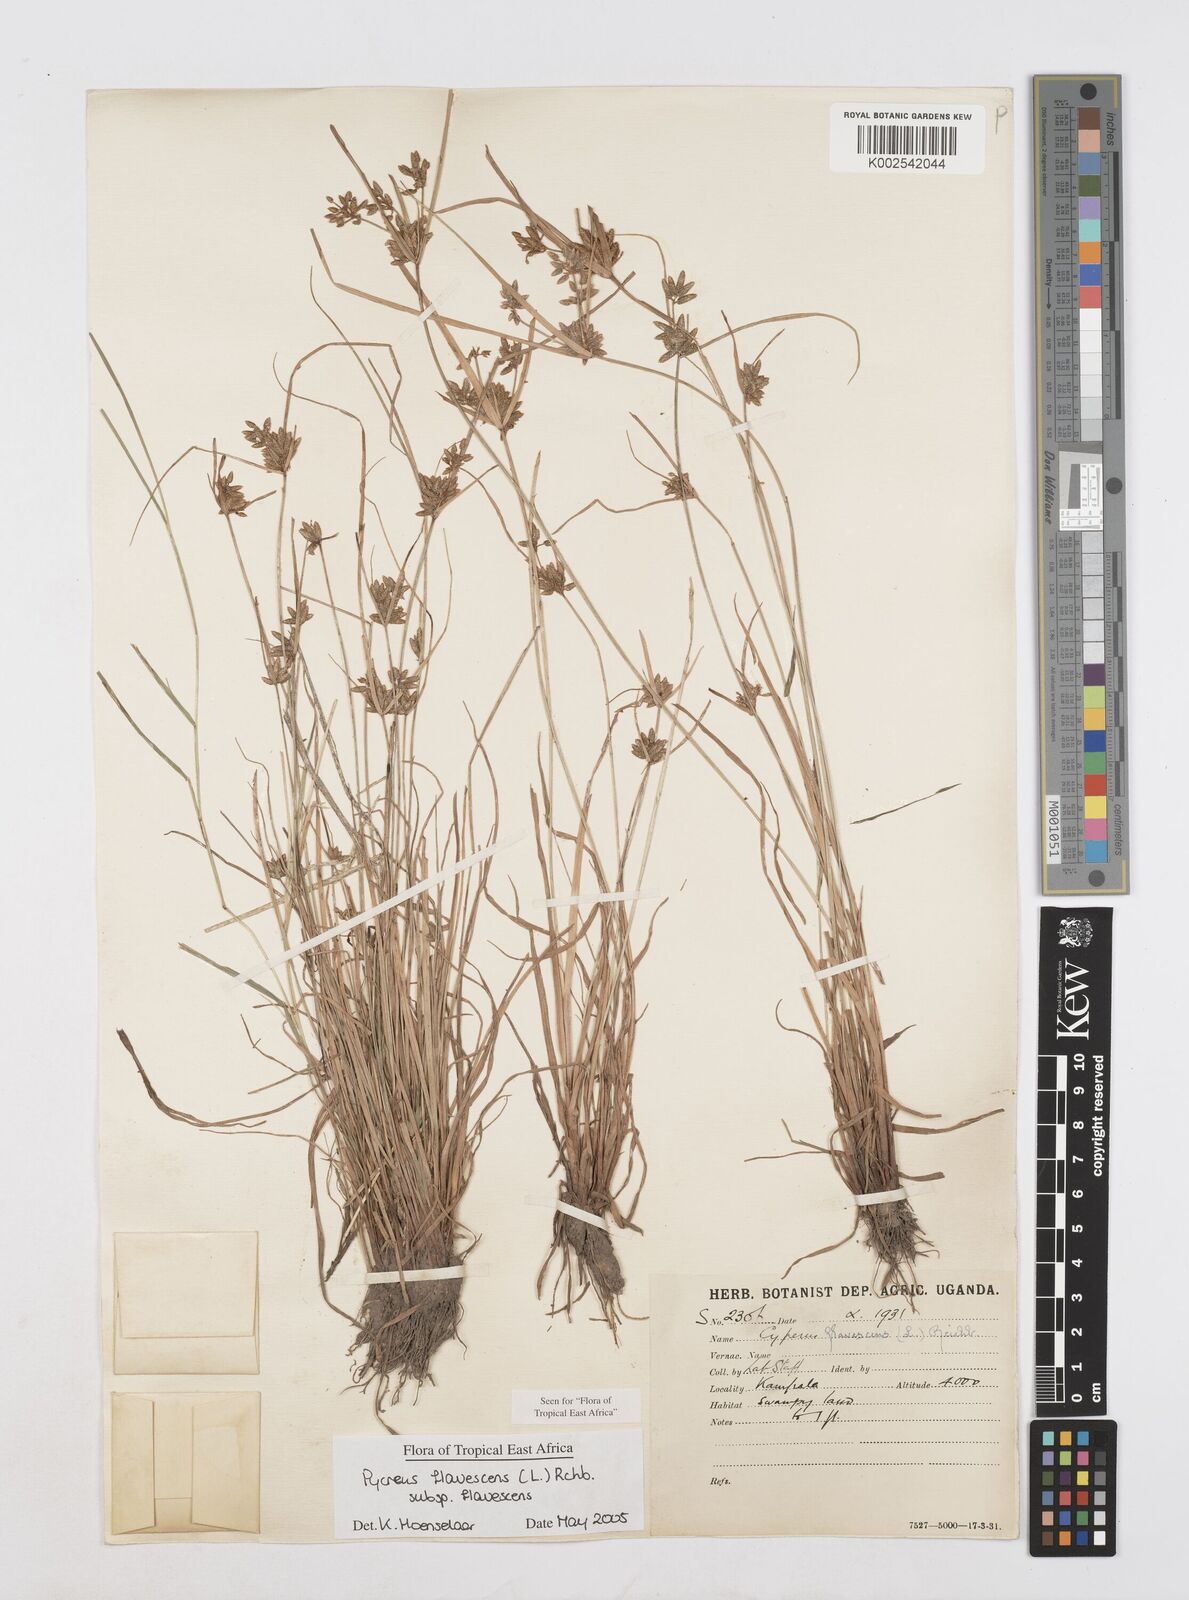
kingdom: Plantae
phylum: Tracheophyta
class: Liliopsida
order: Poales
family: Cyperaceae
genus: Cyperus
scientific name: Cyperus flavescens
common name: Yellow galingale
